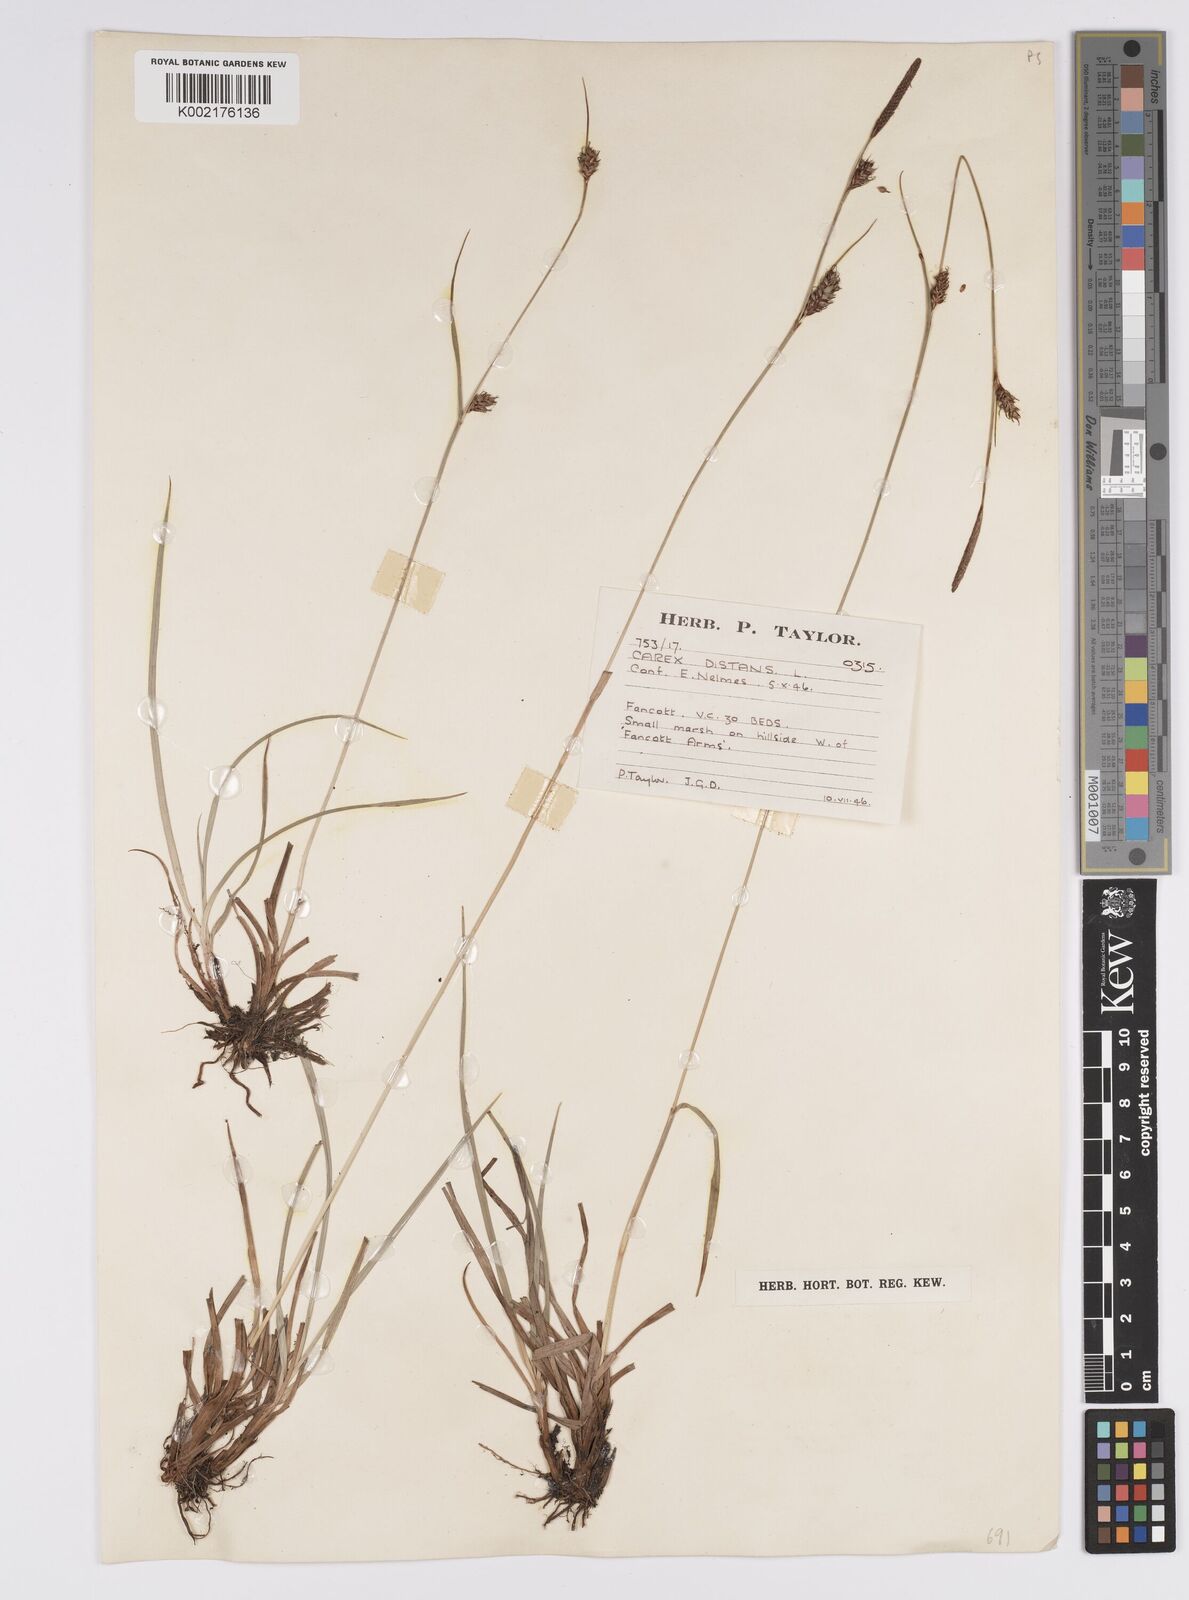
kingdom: Plantae
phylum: Tracheophyta
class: Liliopsida
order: Poales
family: Cyperaceae
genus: Carex
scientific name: Carex distans
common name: Distant sedge
